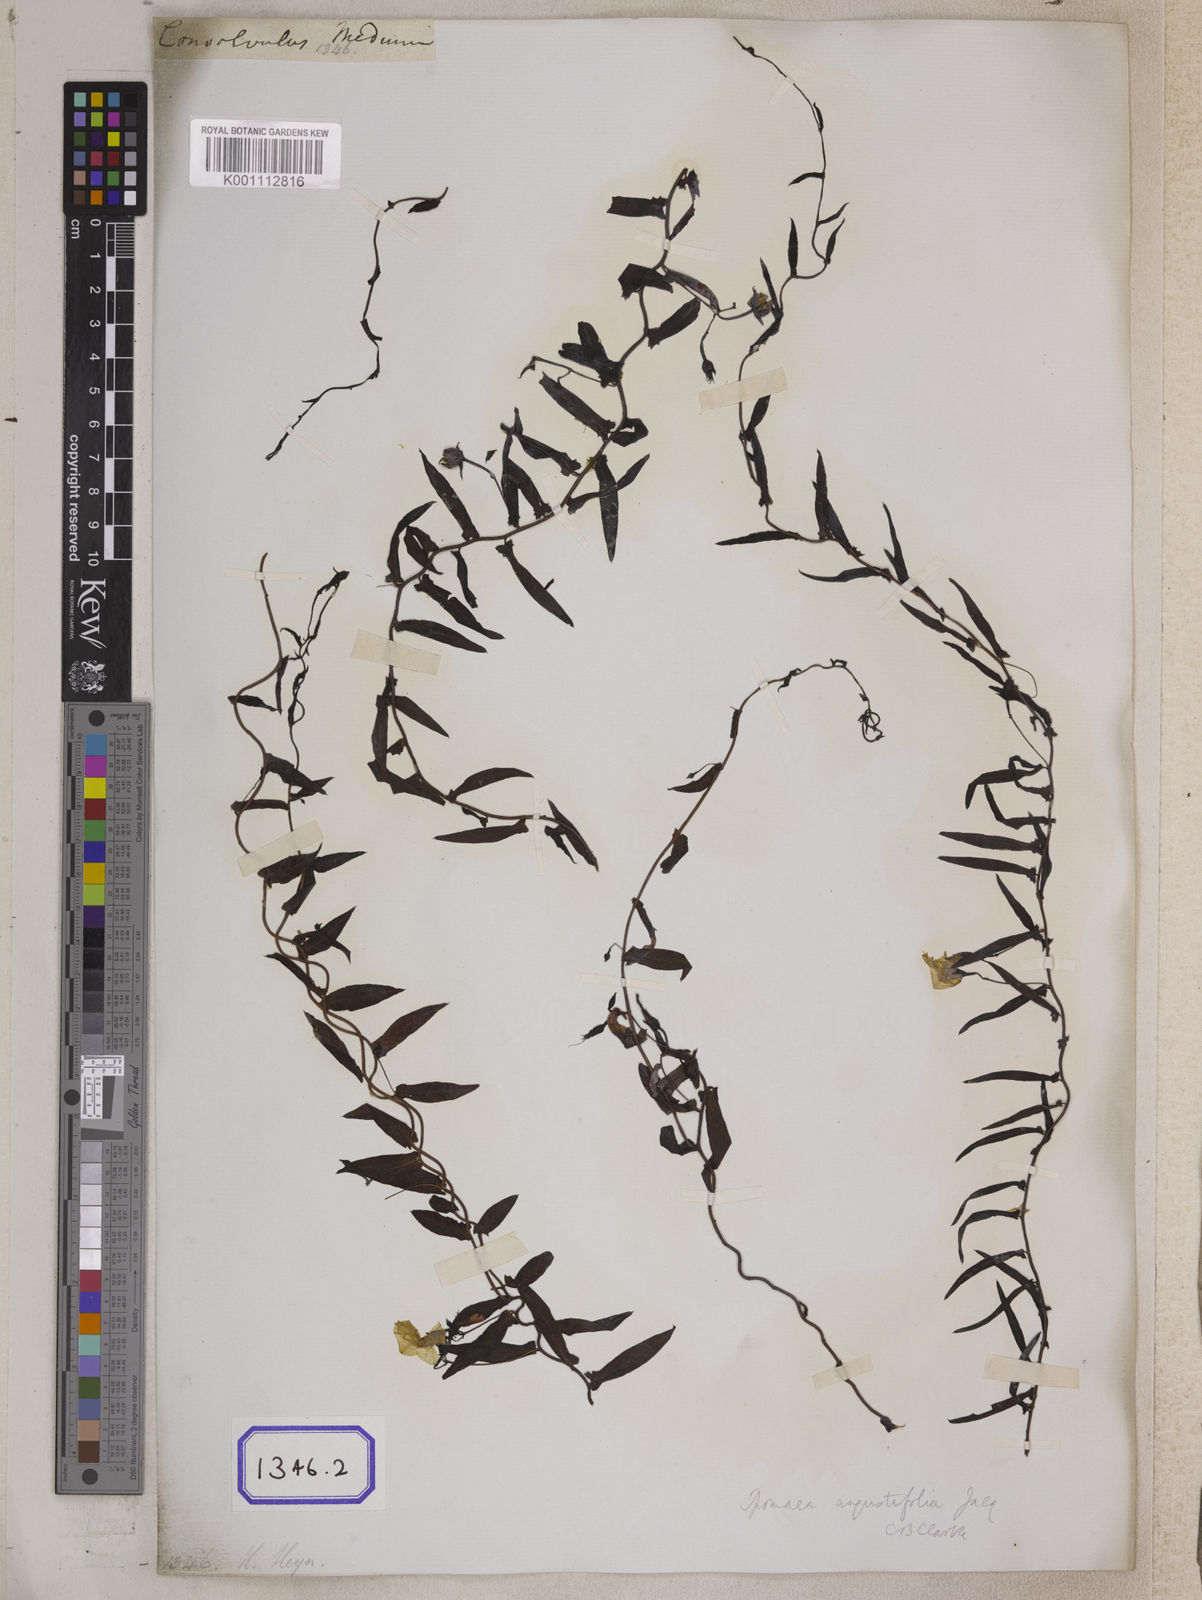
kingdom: Plantae
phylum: Tracheophyta
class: Magnoliopsida
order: Solanales
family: Convolvulaceae
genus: Xenostegia
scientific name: Xenostegia medium
